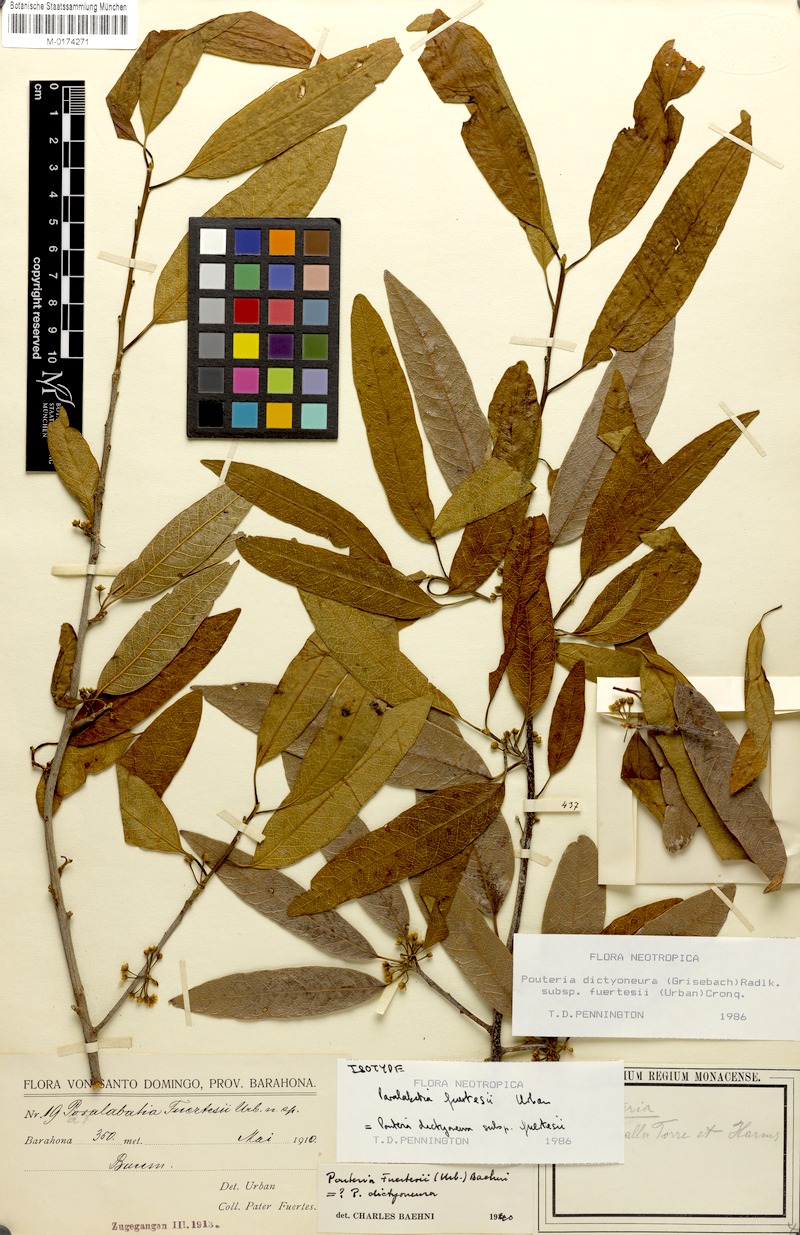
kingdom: Plantae
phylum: Tracheophyta
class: Magnoliopsida
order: Ericales
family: Sapotaceae
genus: Pouteria
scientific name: Pouteria dictyoneura
